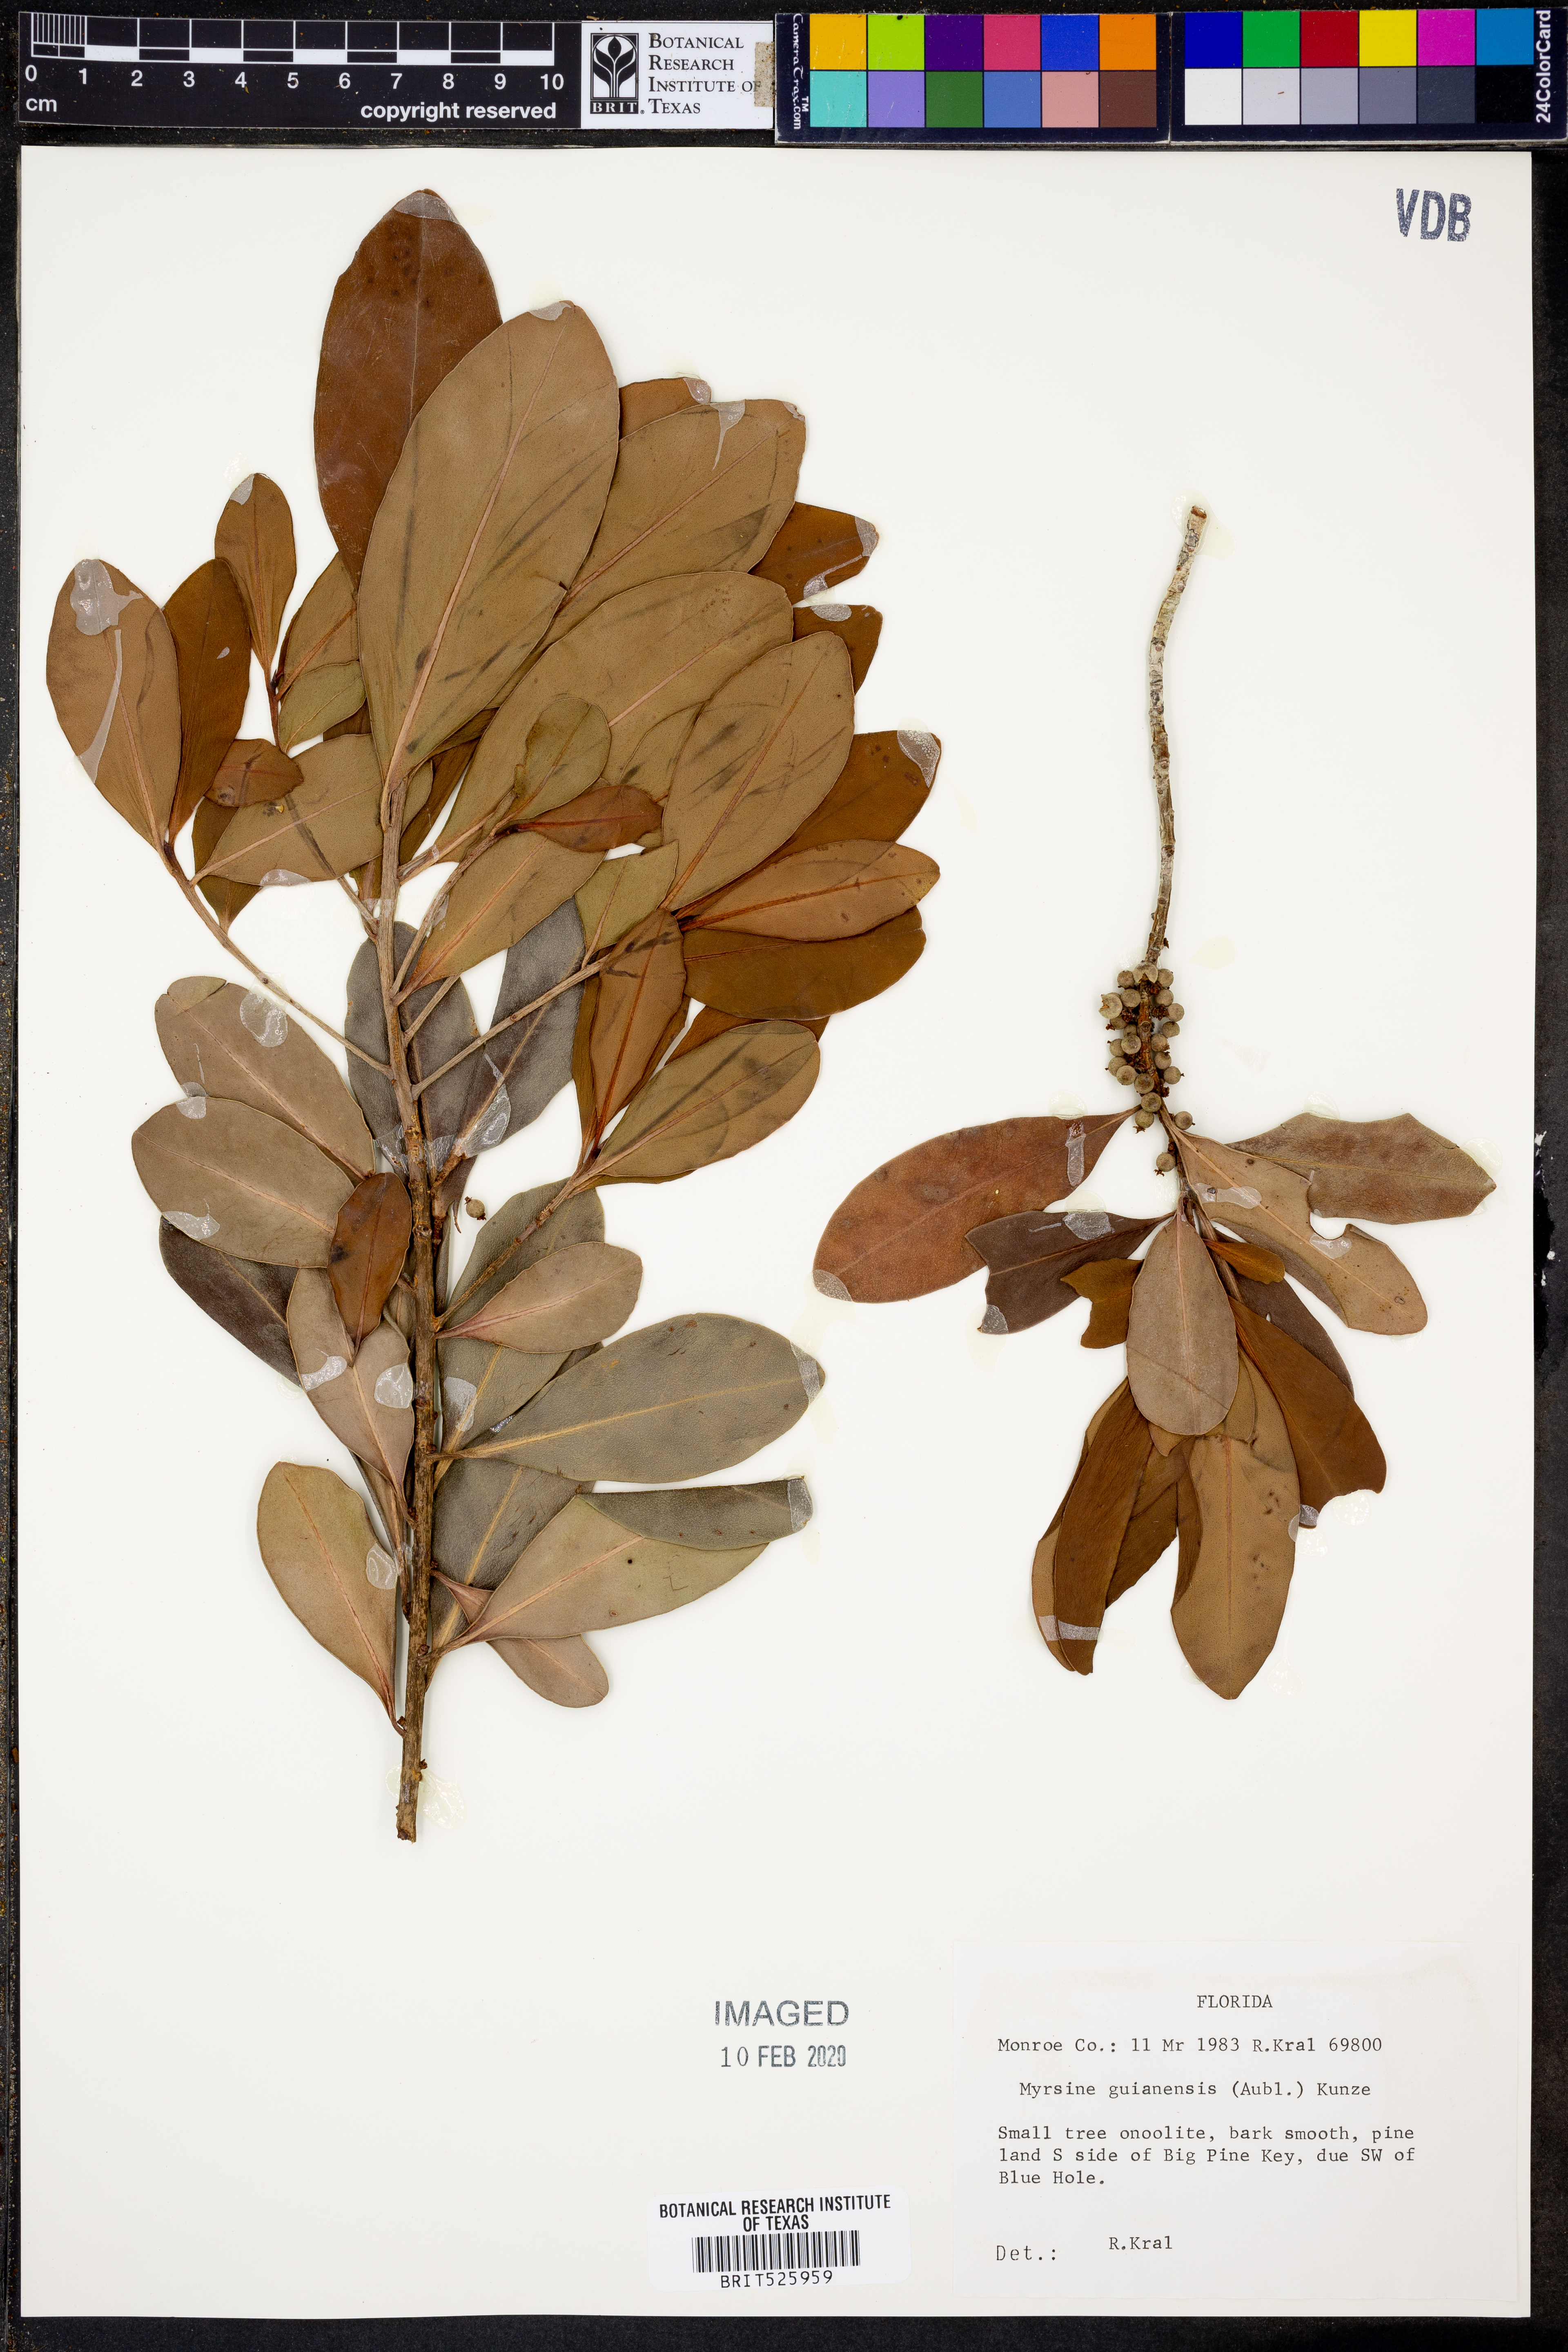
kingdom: Plantae
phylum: Tracheophyta
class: Magnoliopsida
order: Ericales
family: Primulaceae
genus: Myrsine
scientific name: Myrsine guianensis
